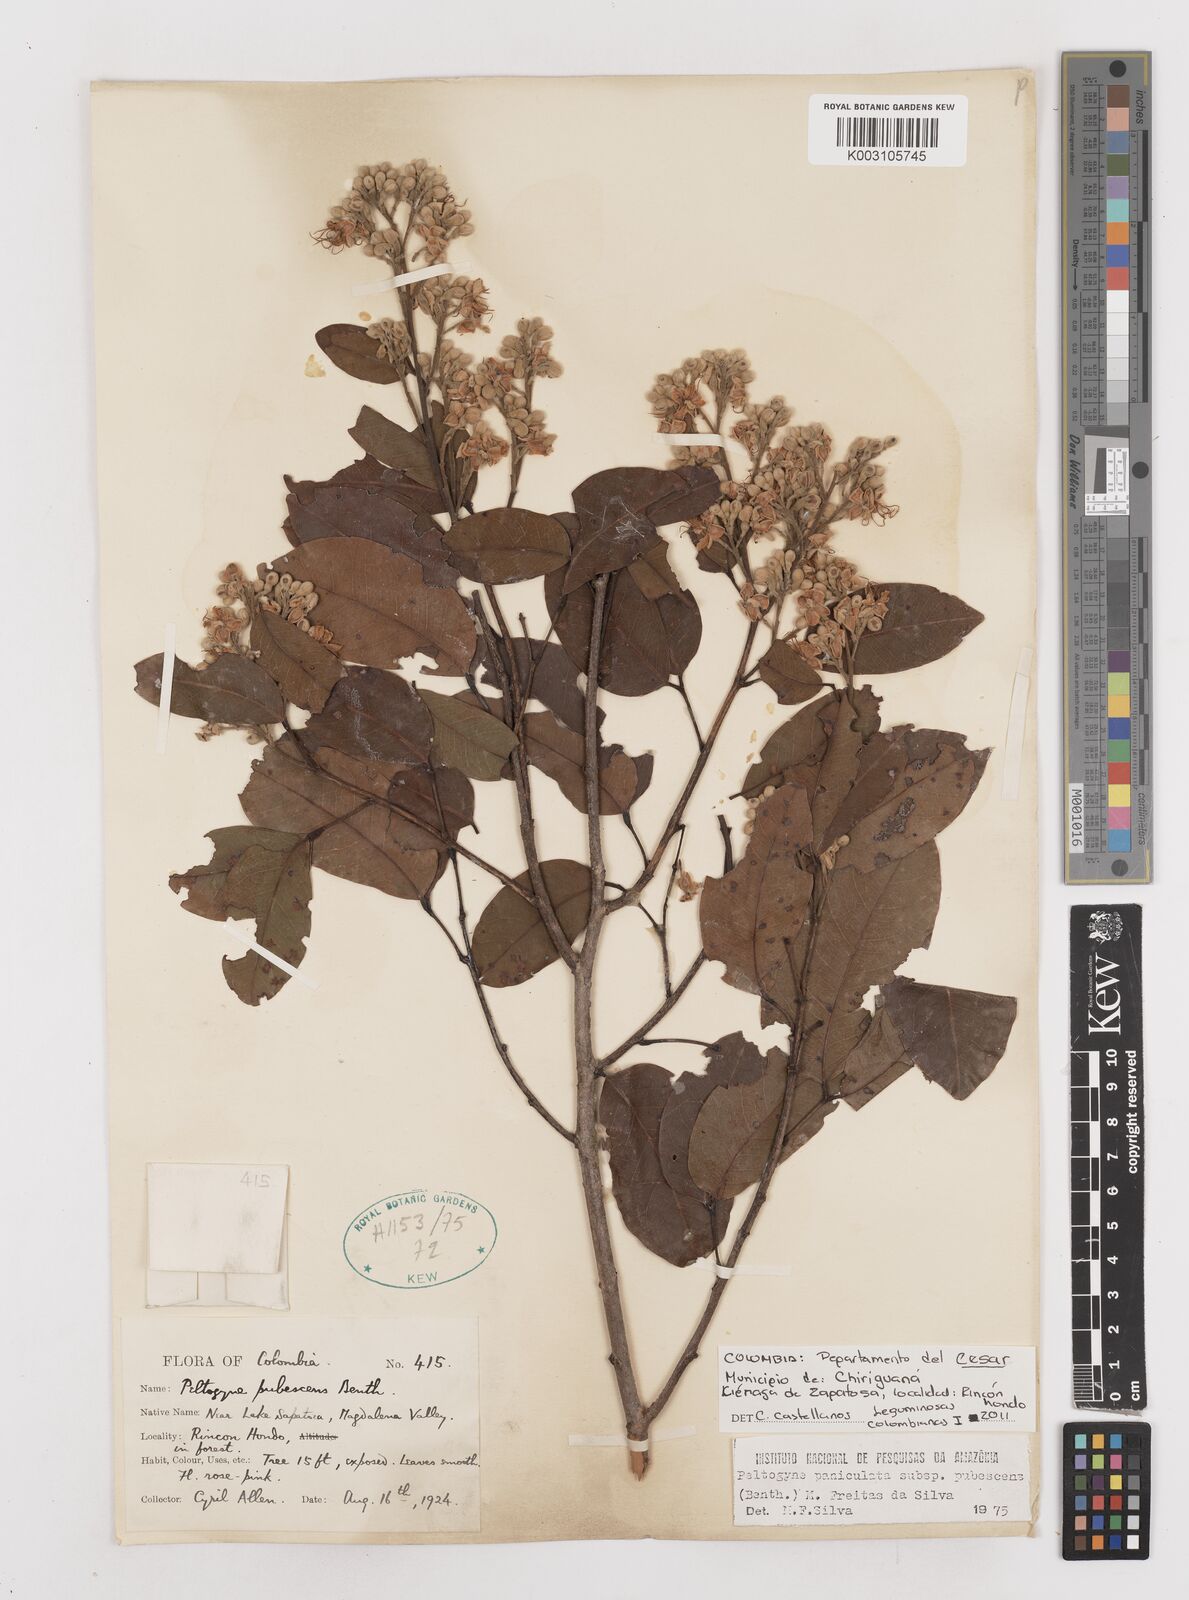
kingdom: Plantae
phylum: Tracheophyta
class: Magnoliopsida
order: Fabales
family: Fabaceae
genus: Peltogyne
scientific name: Peltogyne paniculata
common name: Purpleheart
